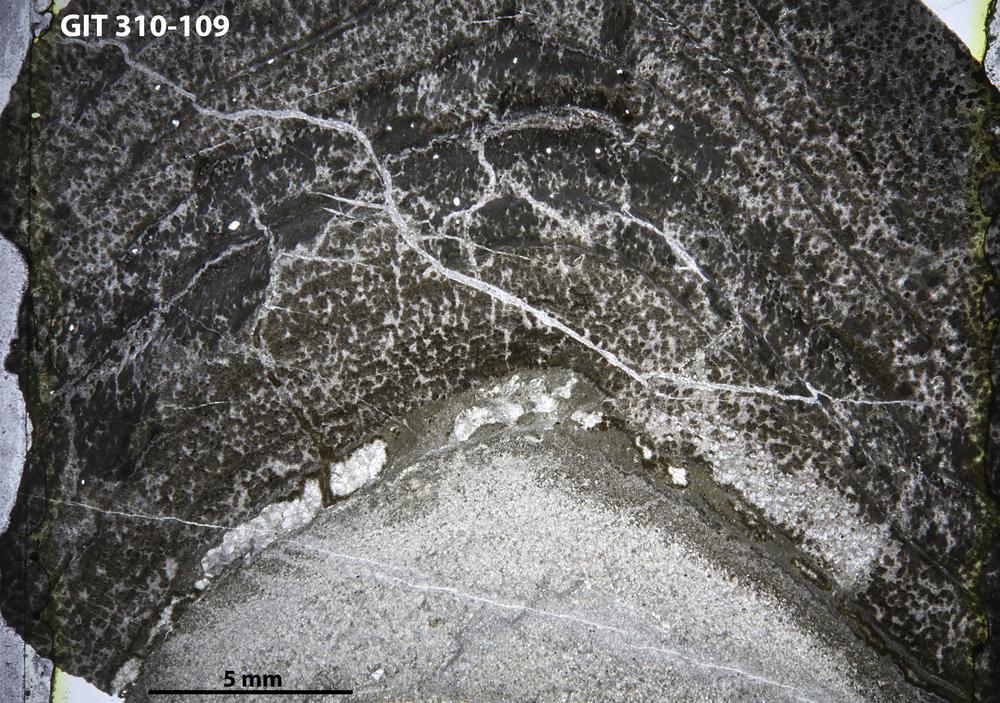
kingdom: Animalia
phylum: Porifera
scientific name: Porifera
